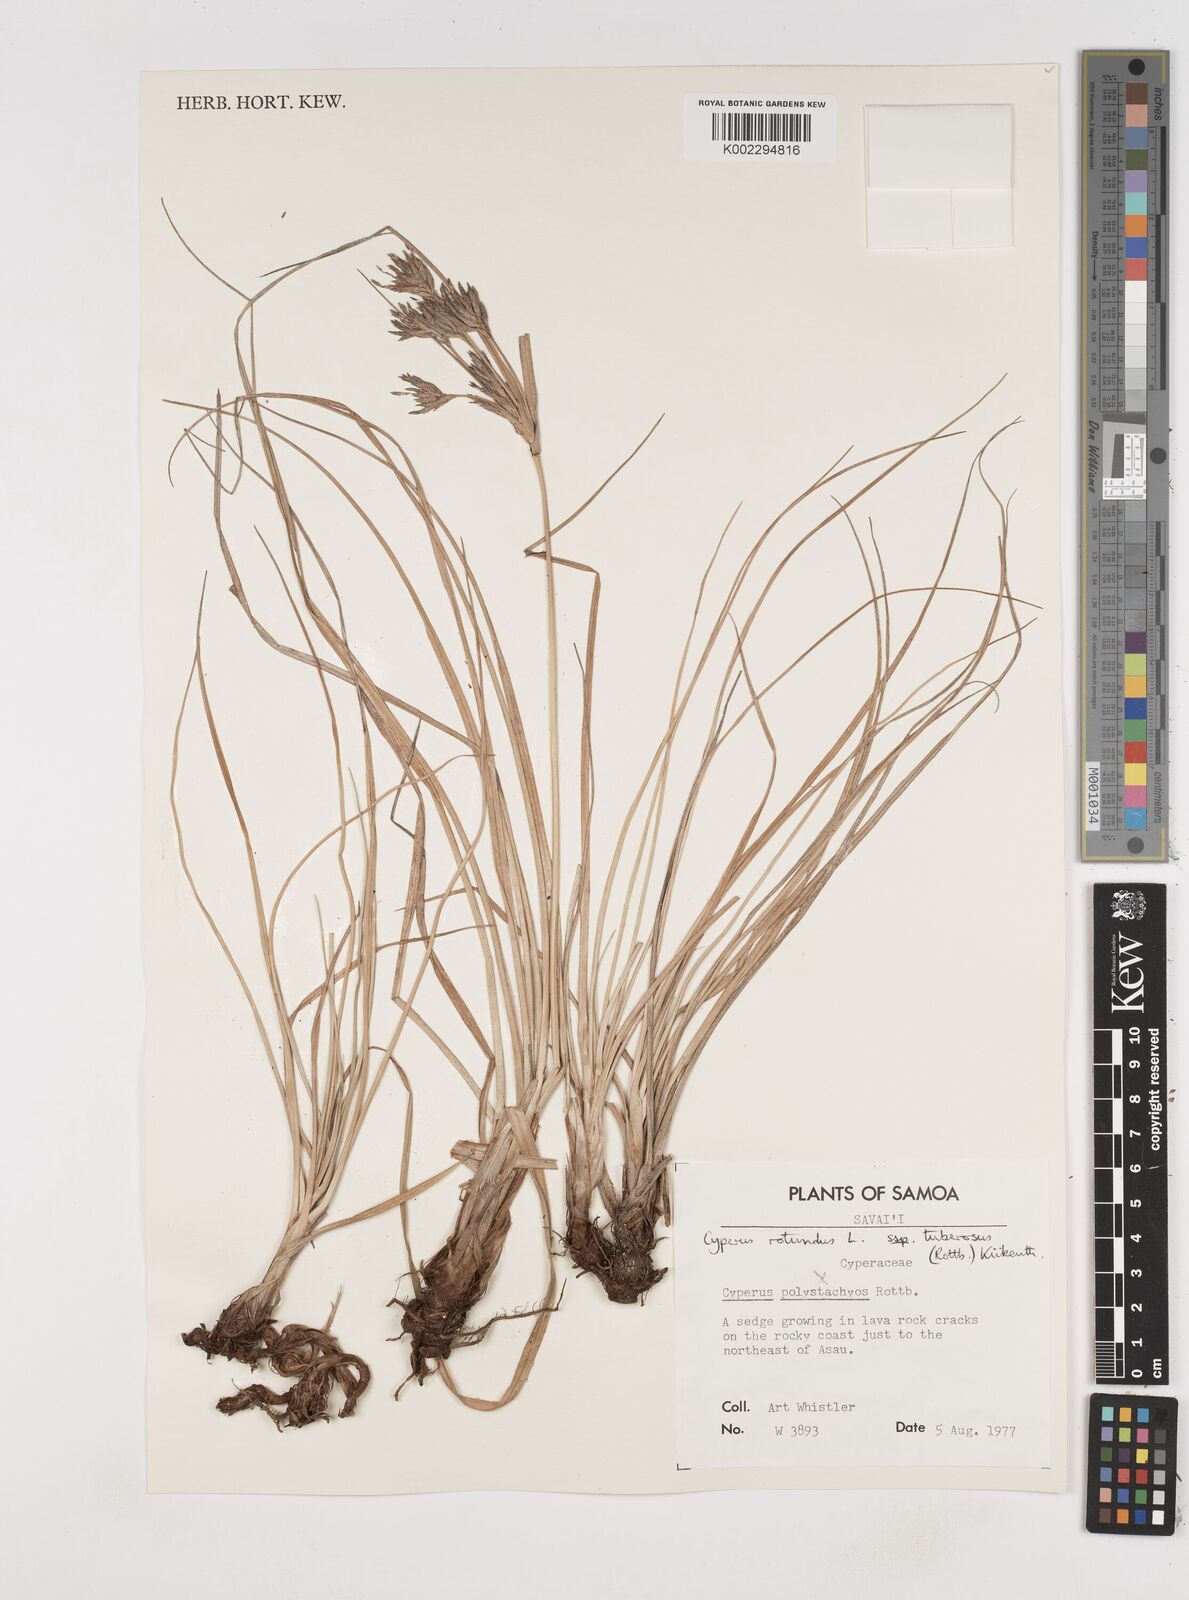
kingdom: Plantae
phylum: Tracheophyta
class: Liliopsida
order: Poales
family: Cyperaceae
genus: Cyperus
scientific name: Cyperus stolonifer
